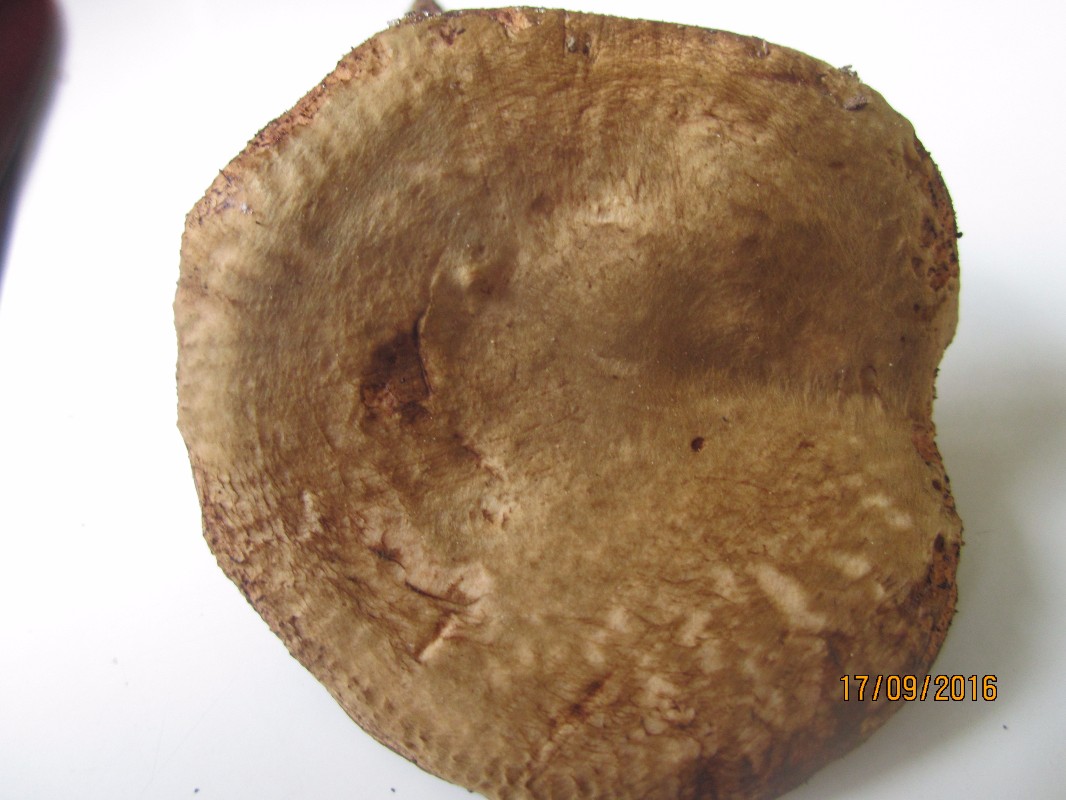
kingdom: Fungi
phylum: Basidiomycota
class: Agaricomycetes
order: Boletales
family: Paxillaceae
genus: Paxillus
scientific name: Paxillus rubicundulus
